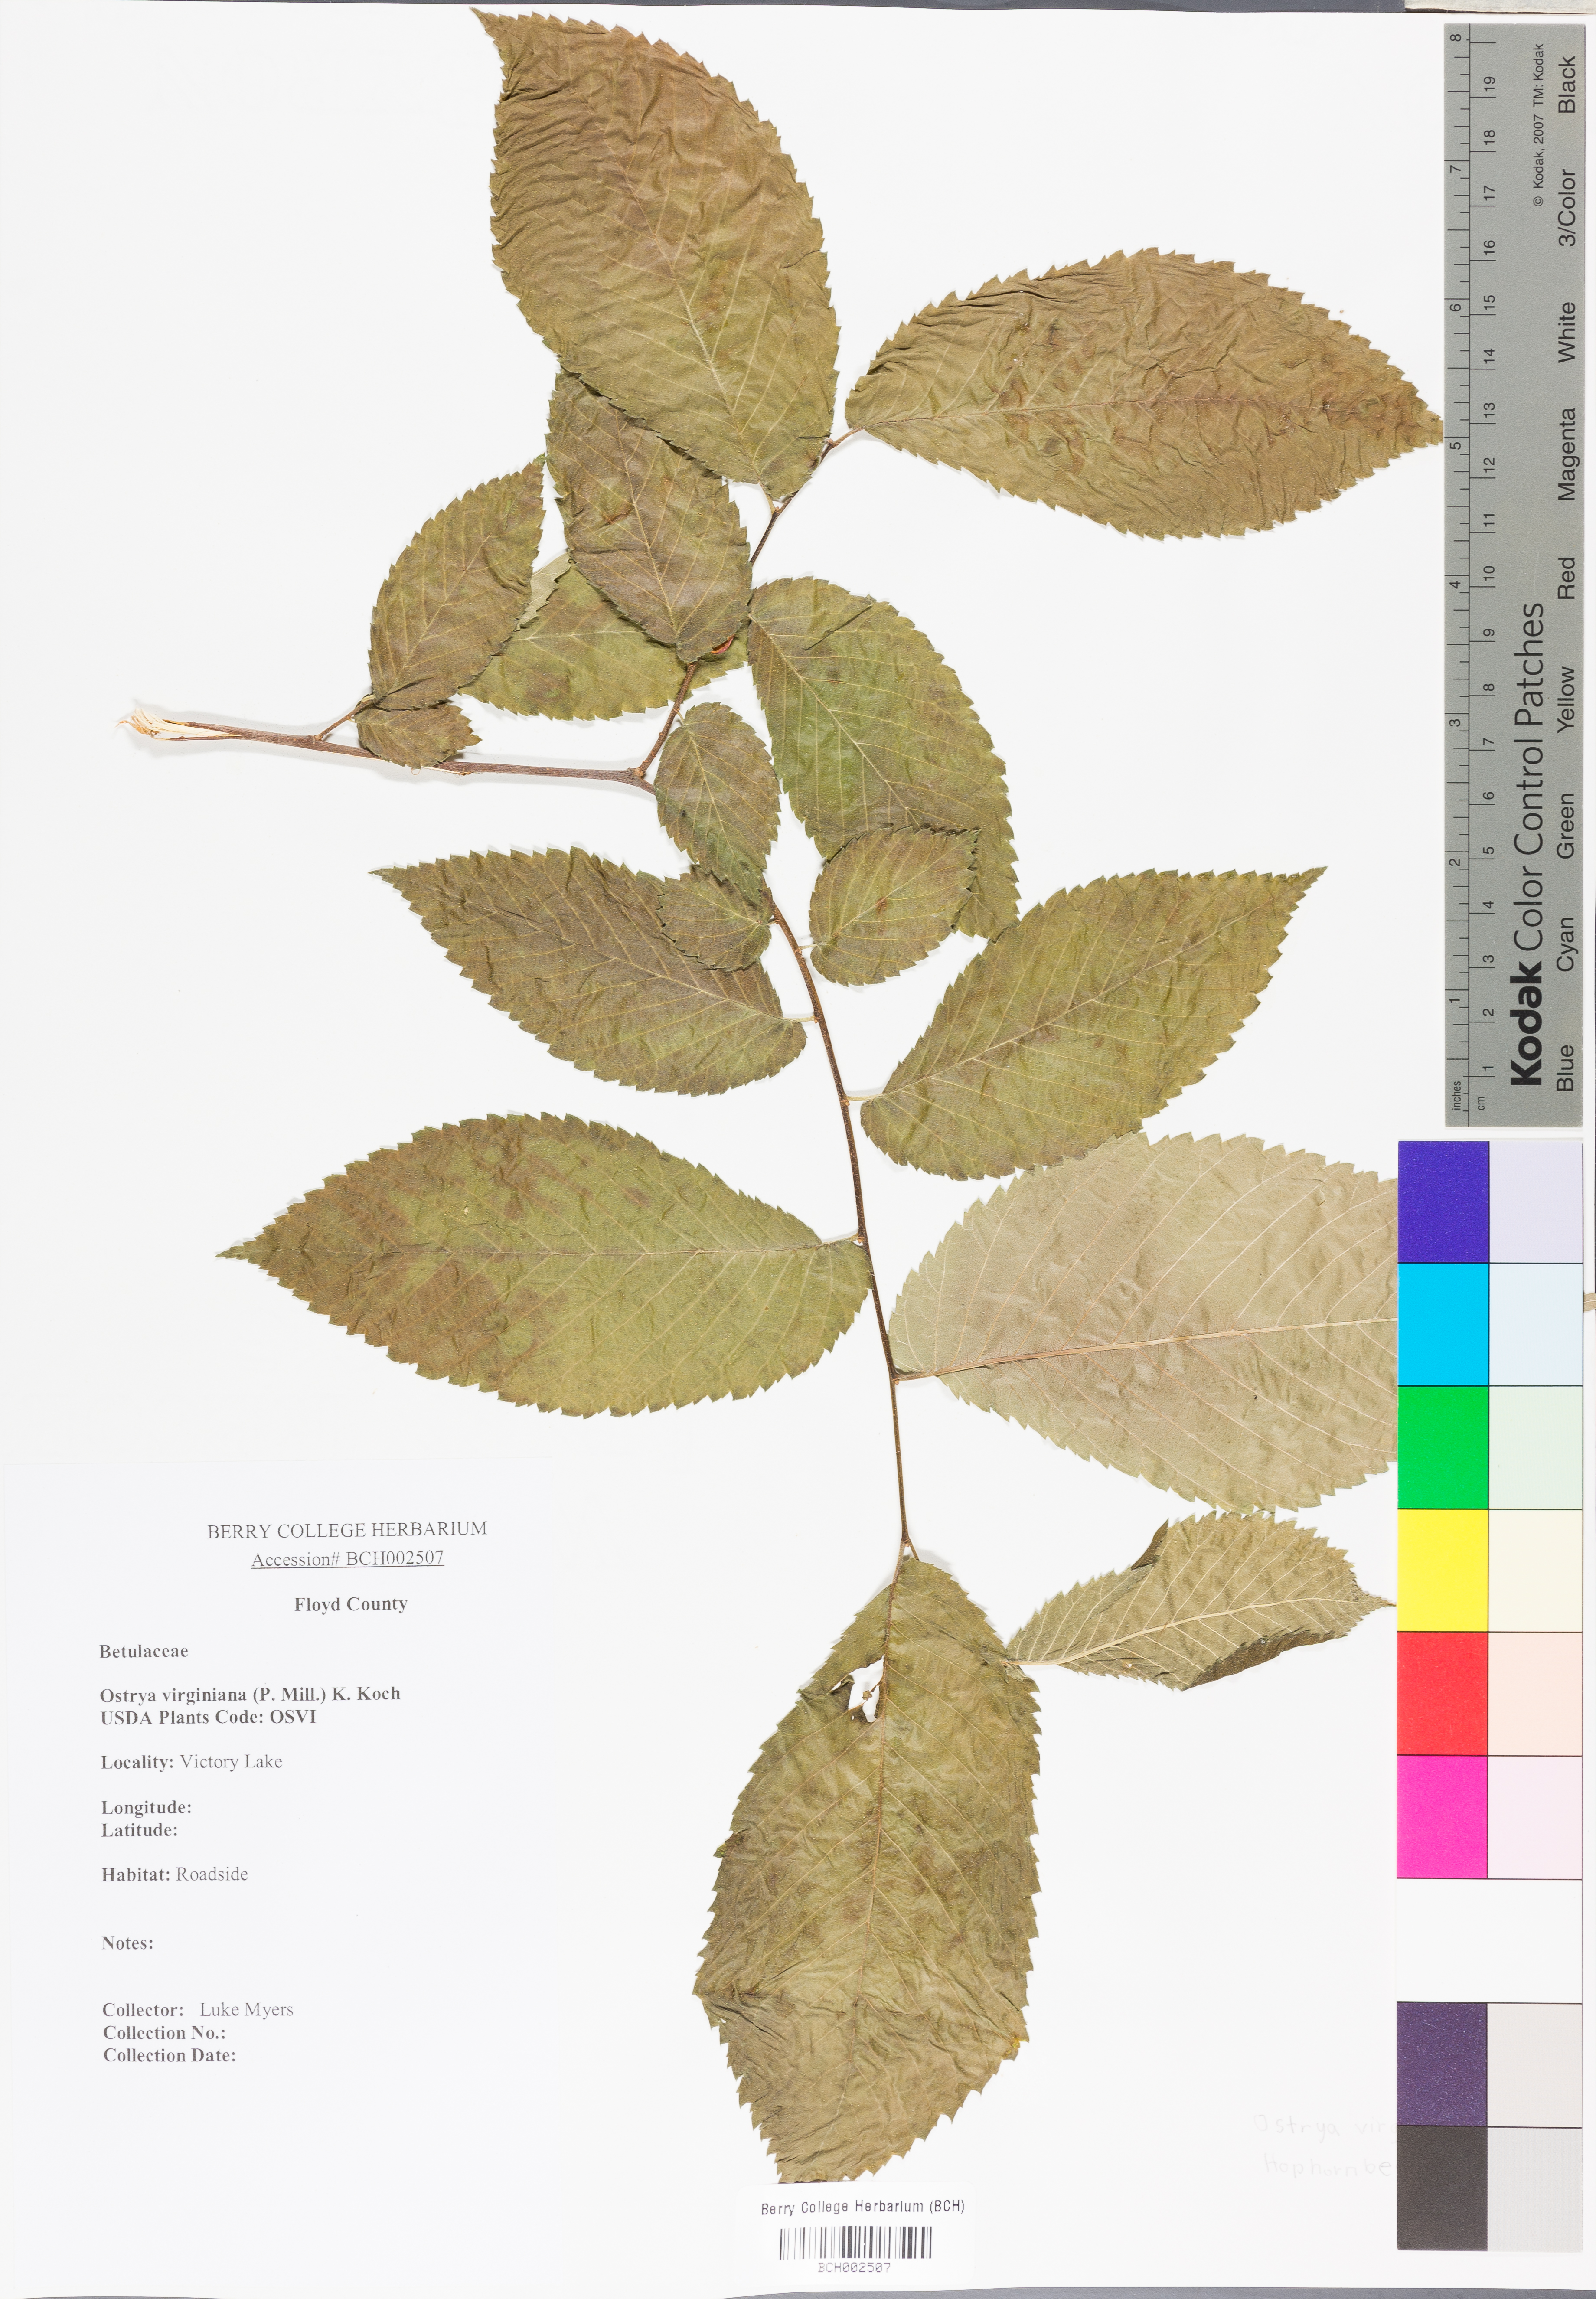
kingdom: Plantae
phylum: Tracheophyta
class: Magnoliopsida
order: Fagales
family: Betulaceae
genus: Ostrya
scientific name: Ostrya virginiana
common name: Ironwood
